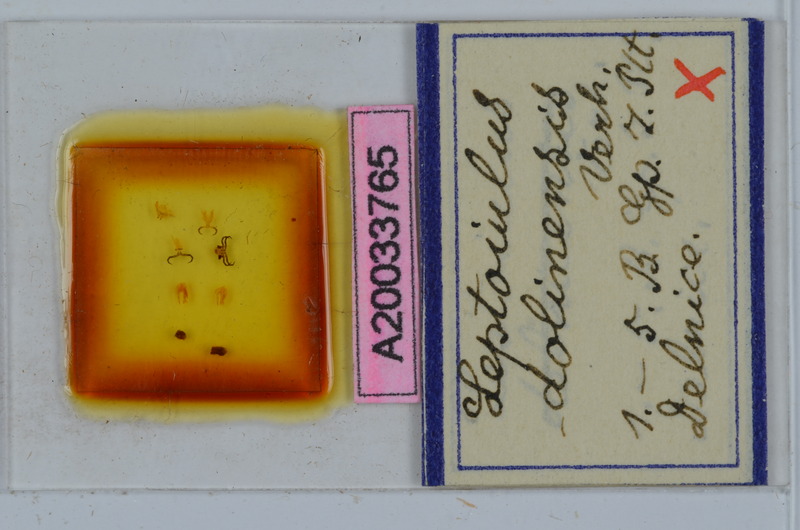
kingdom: Animalia
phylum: Arthropoda
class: Diplopoda
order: Julida
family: Julidae
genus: Leptoiulus
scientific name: Leptoiulus dolinensis
